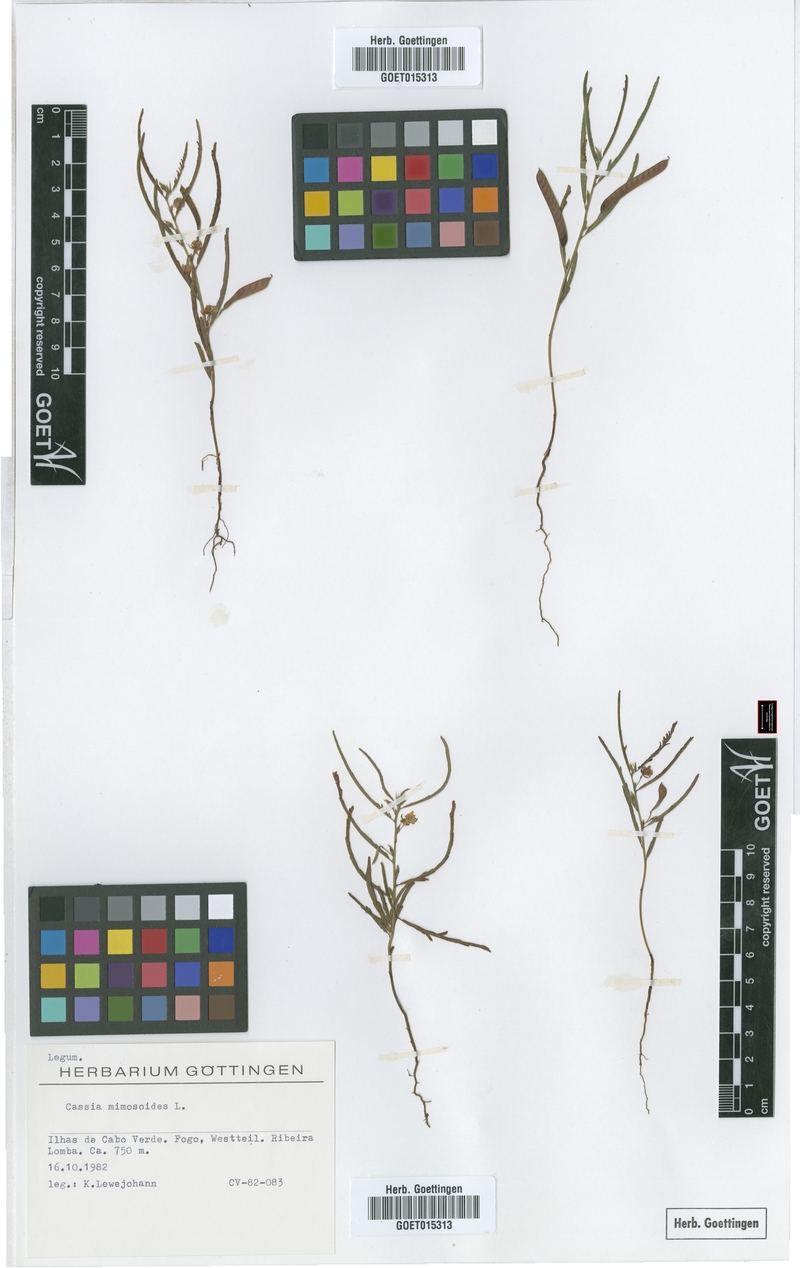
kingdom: Plantae
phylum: Tracheophyta
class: Magnoliopsida
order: Fabales
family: Fabaceae
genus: Chamaecrista
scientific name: Chamaecrista mimosoides
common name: Fish-bone cassia
